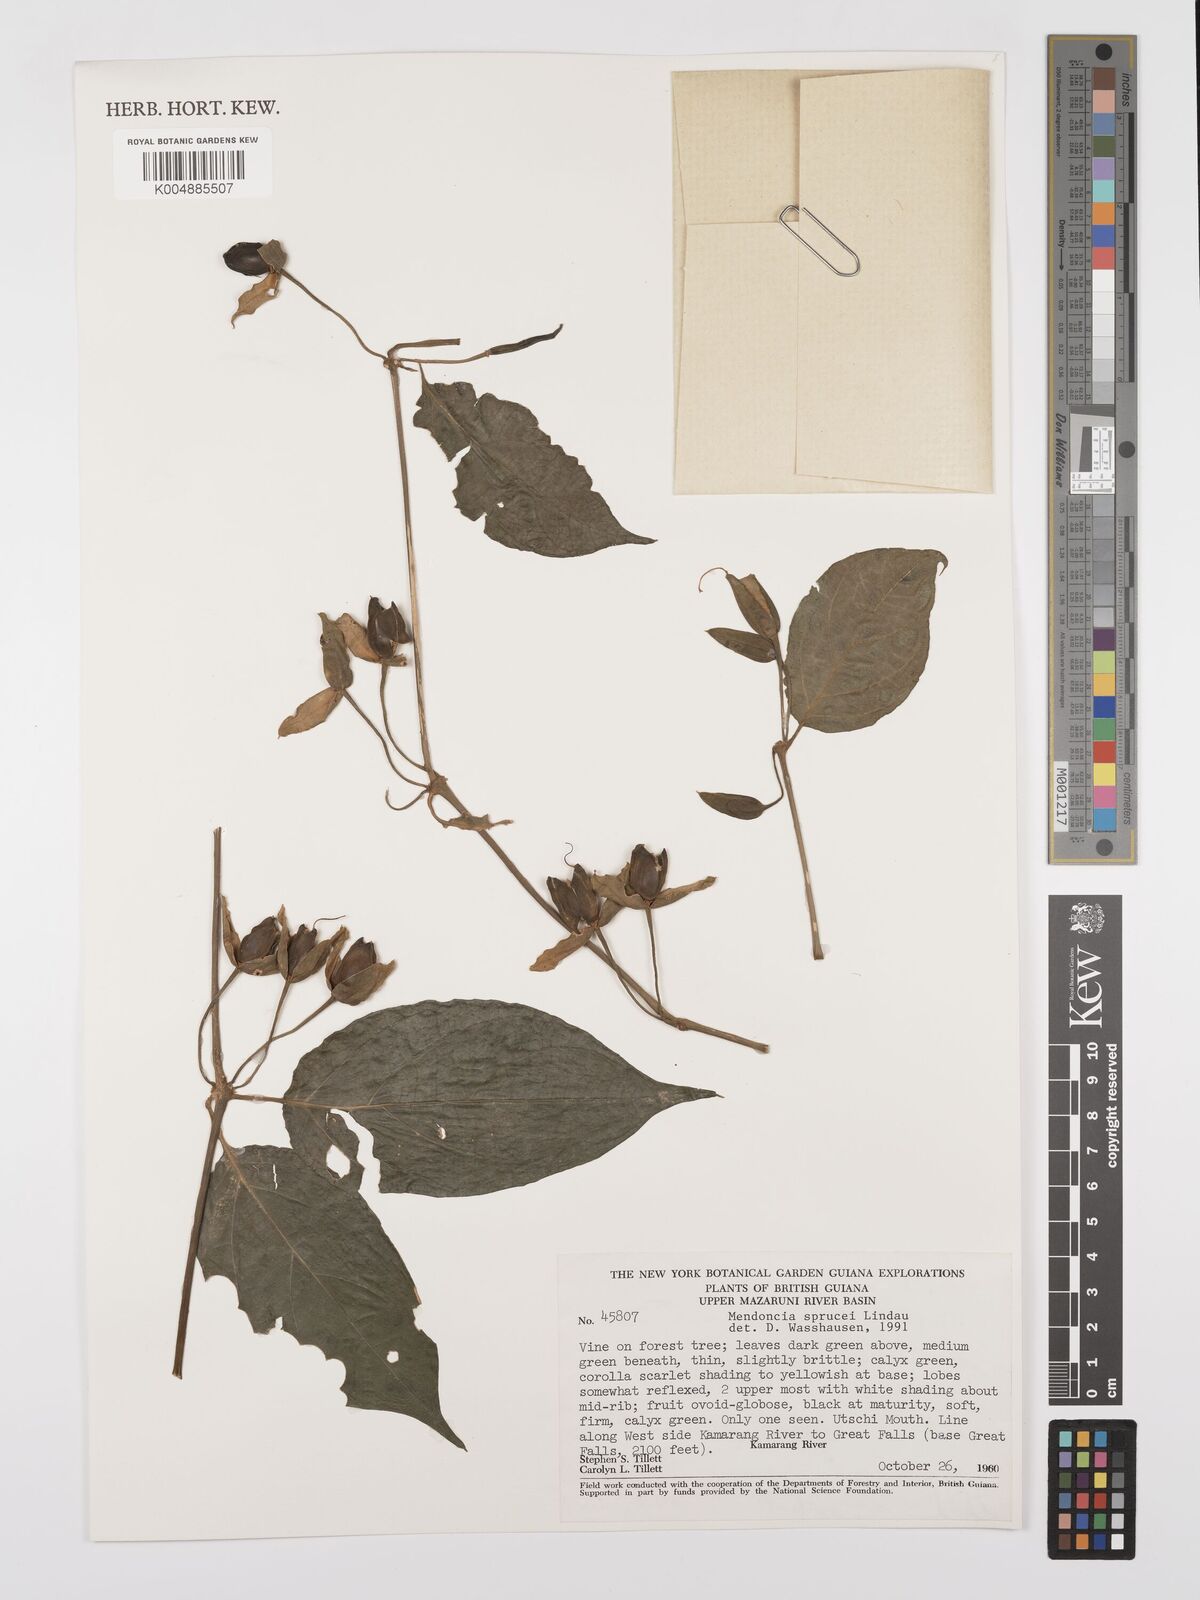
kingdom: Plantae
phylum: Tracheophyta
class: Magnoliopsida
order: Lamiales
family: Acanthaceae
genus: Mendoncia
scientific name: Mendoncia sprucei
